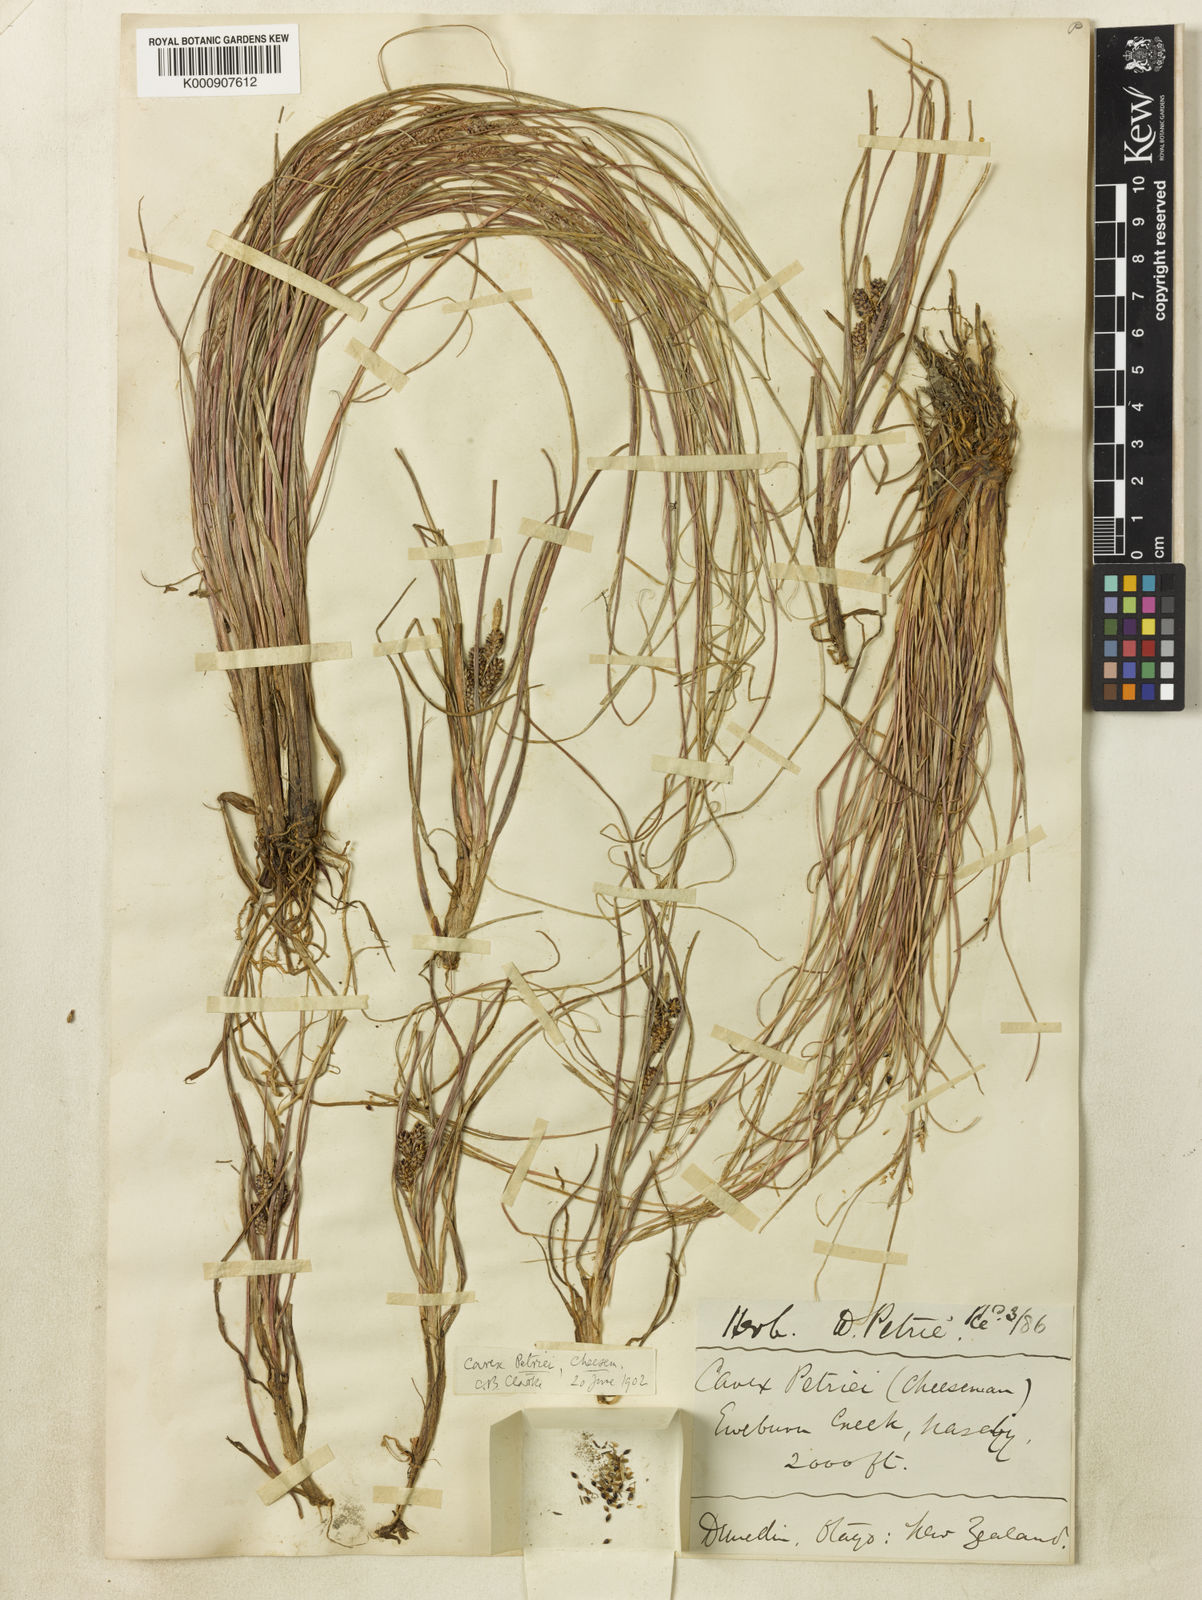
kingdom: Plantae
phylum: Tracheophyta
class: Liliopsida
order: Poales
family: Cyperaceae
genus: Carex
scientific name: Carex petriei
